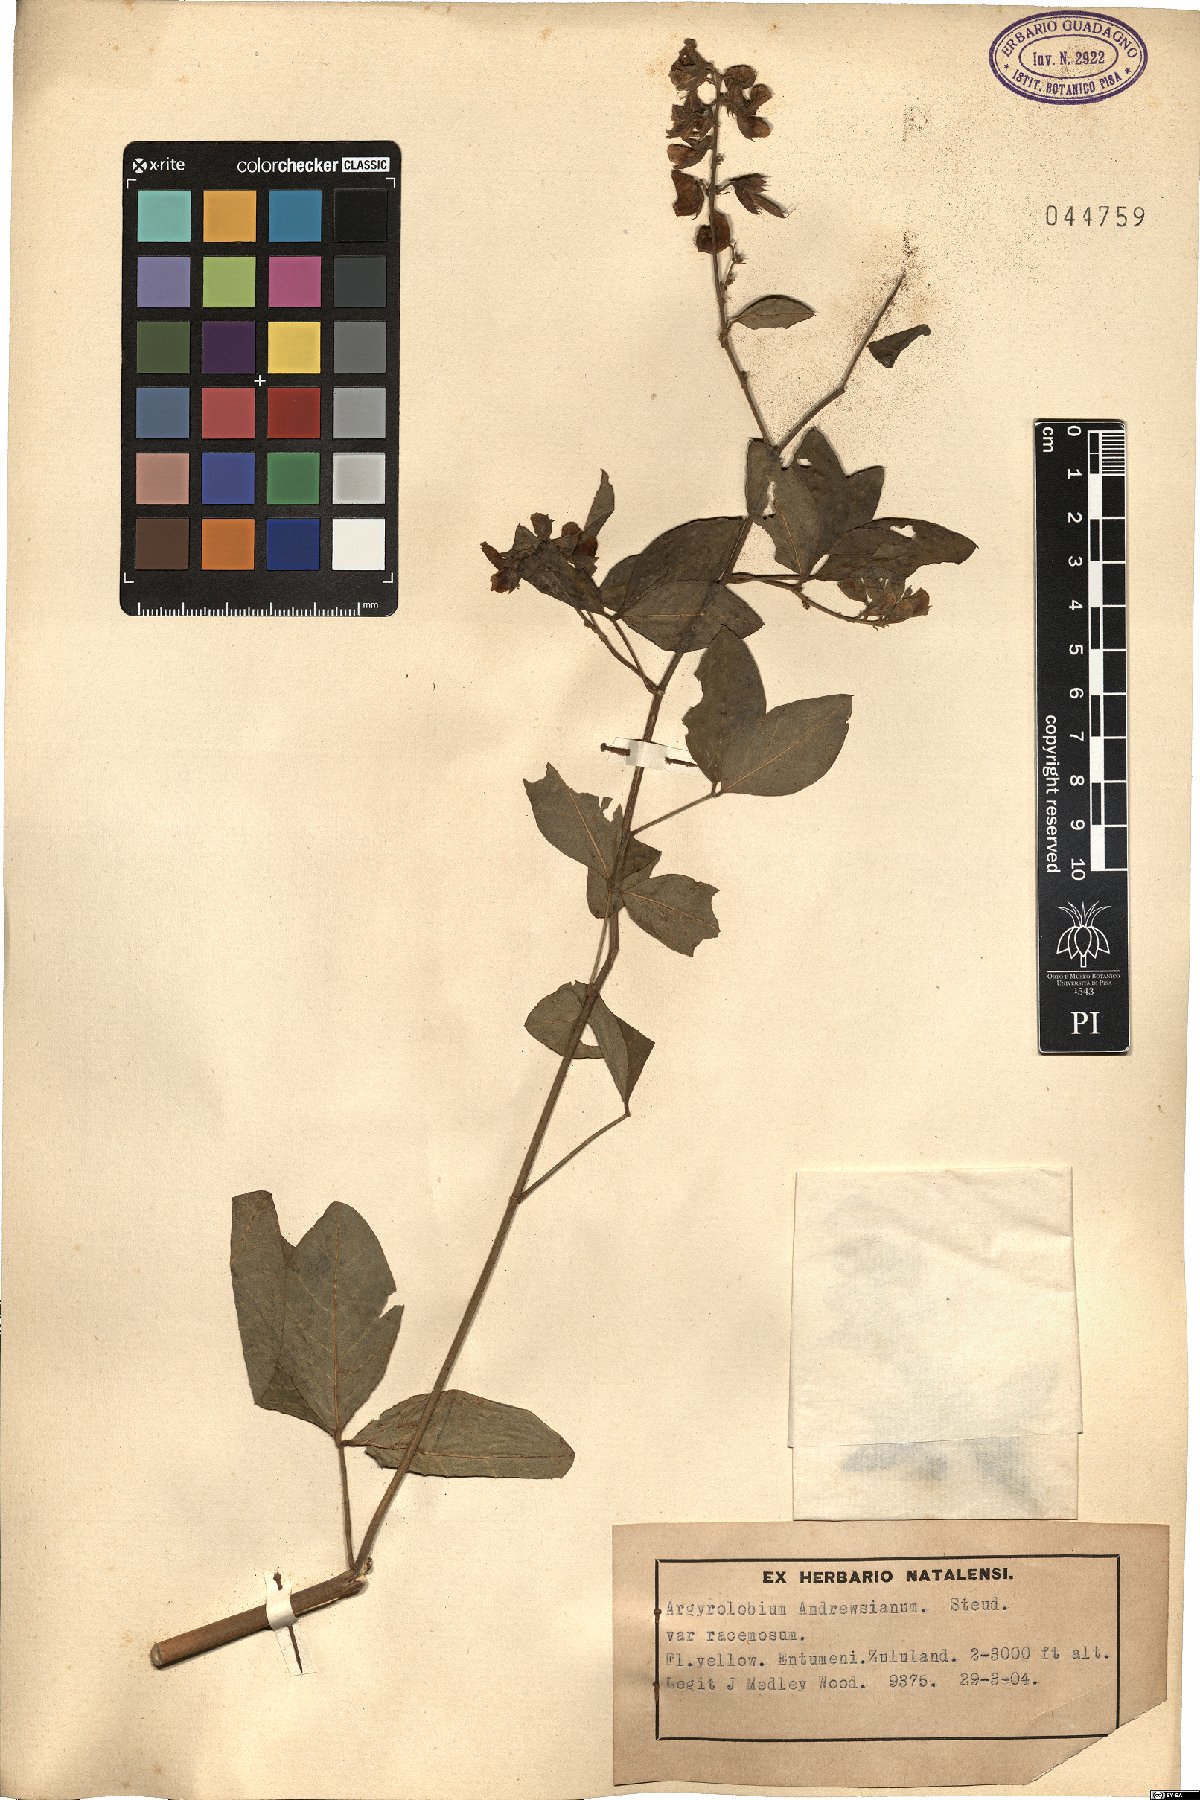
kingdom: Plantae
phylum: Tracheophyta
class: Magnoliopsida
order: Fabales
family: Fabaceae
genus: Argyrolobium
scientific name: Argyrolobium tomentosum
